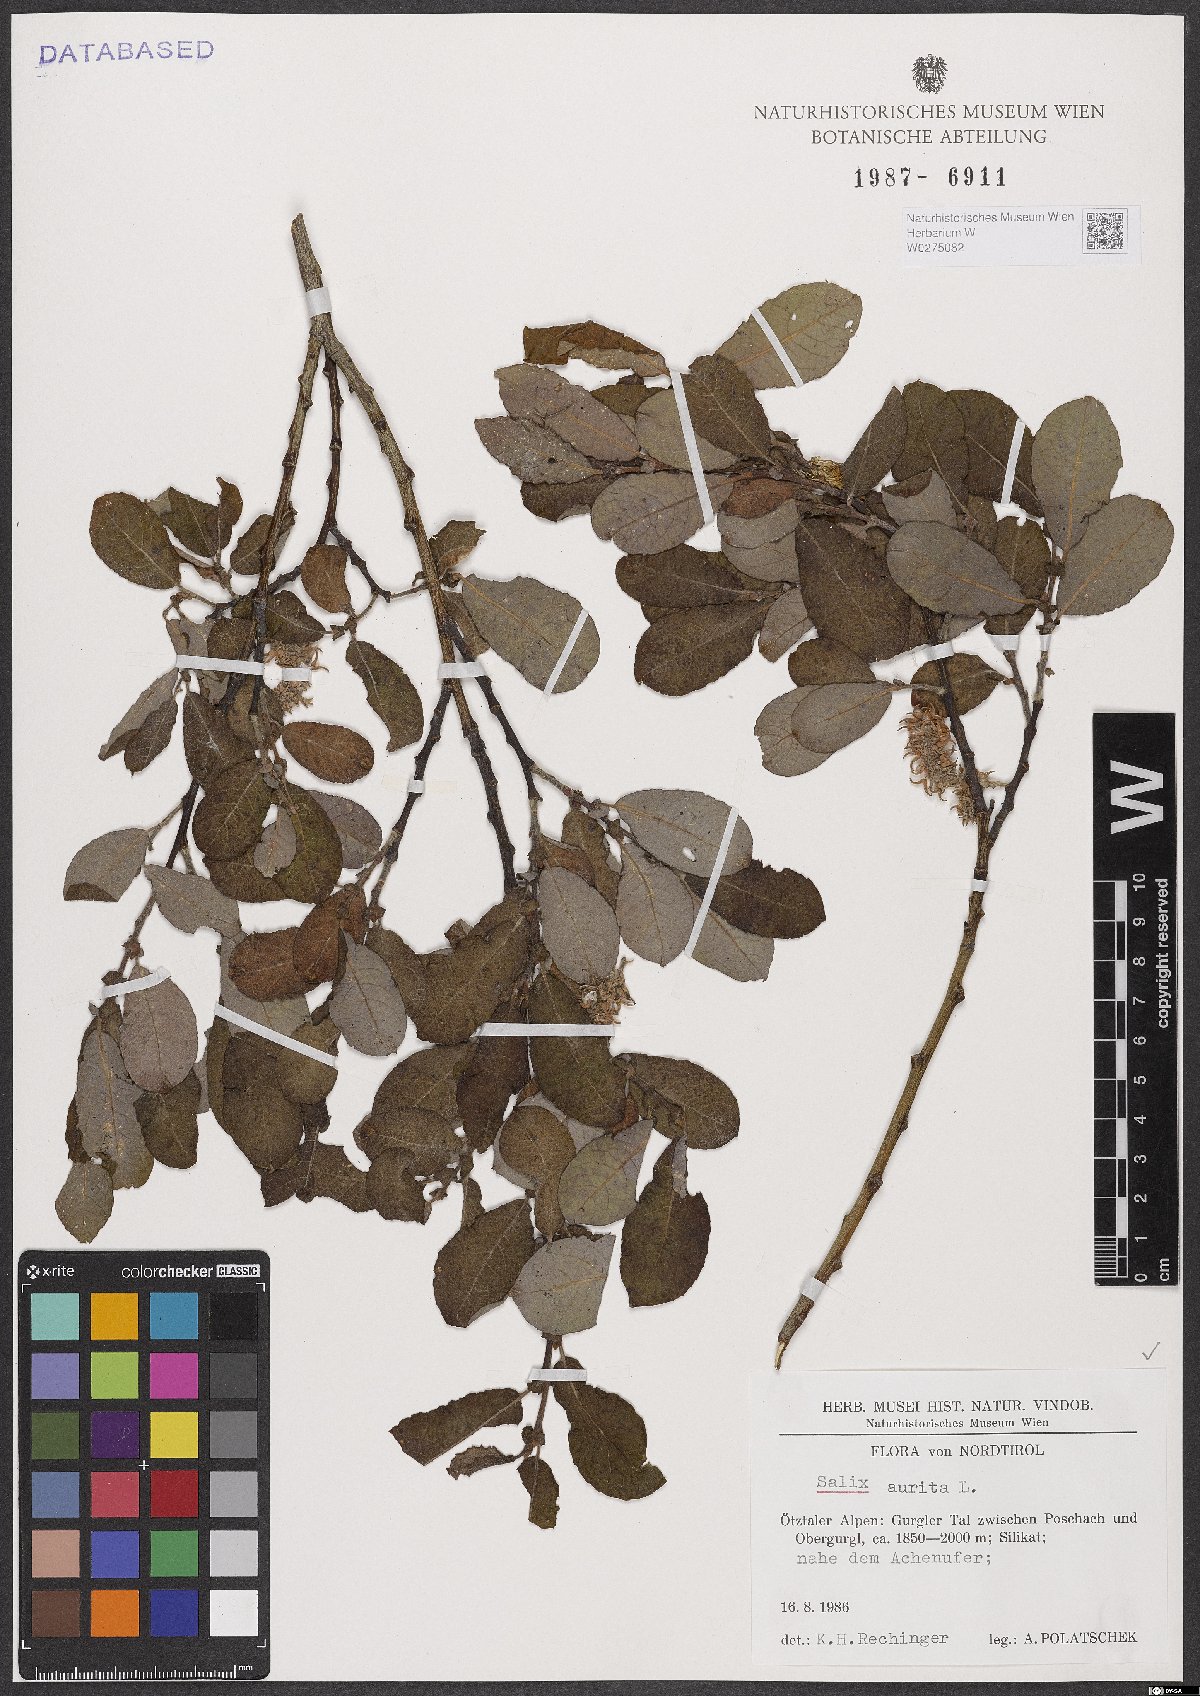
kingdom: Plantae
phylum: Tracheophyta
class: Magnoliopsida
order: Malpighiales
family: Salicaceae
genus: Salix
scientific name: Salix aurita
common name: Eared willow
